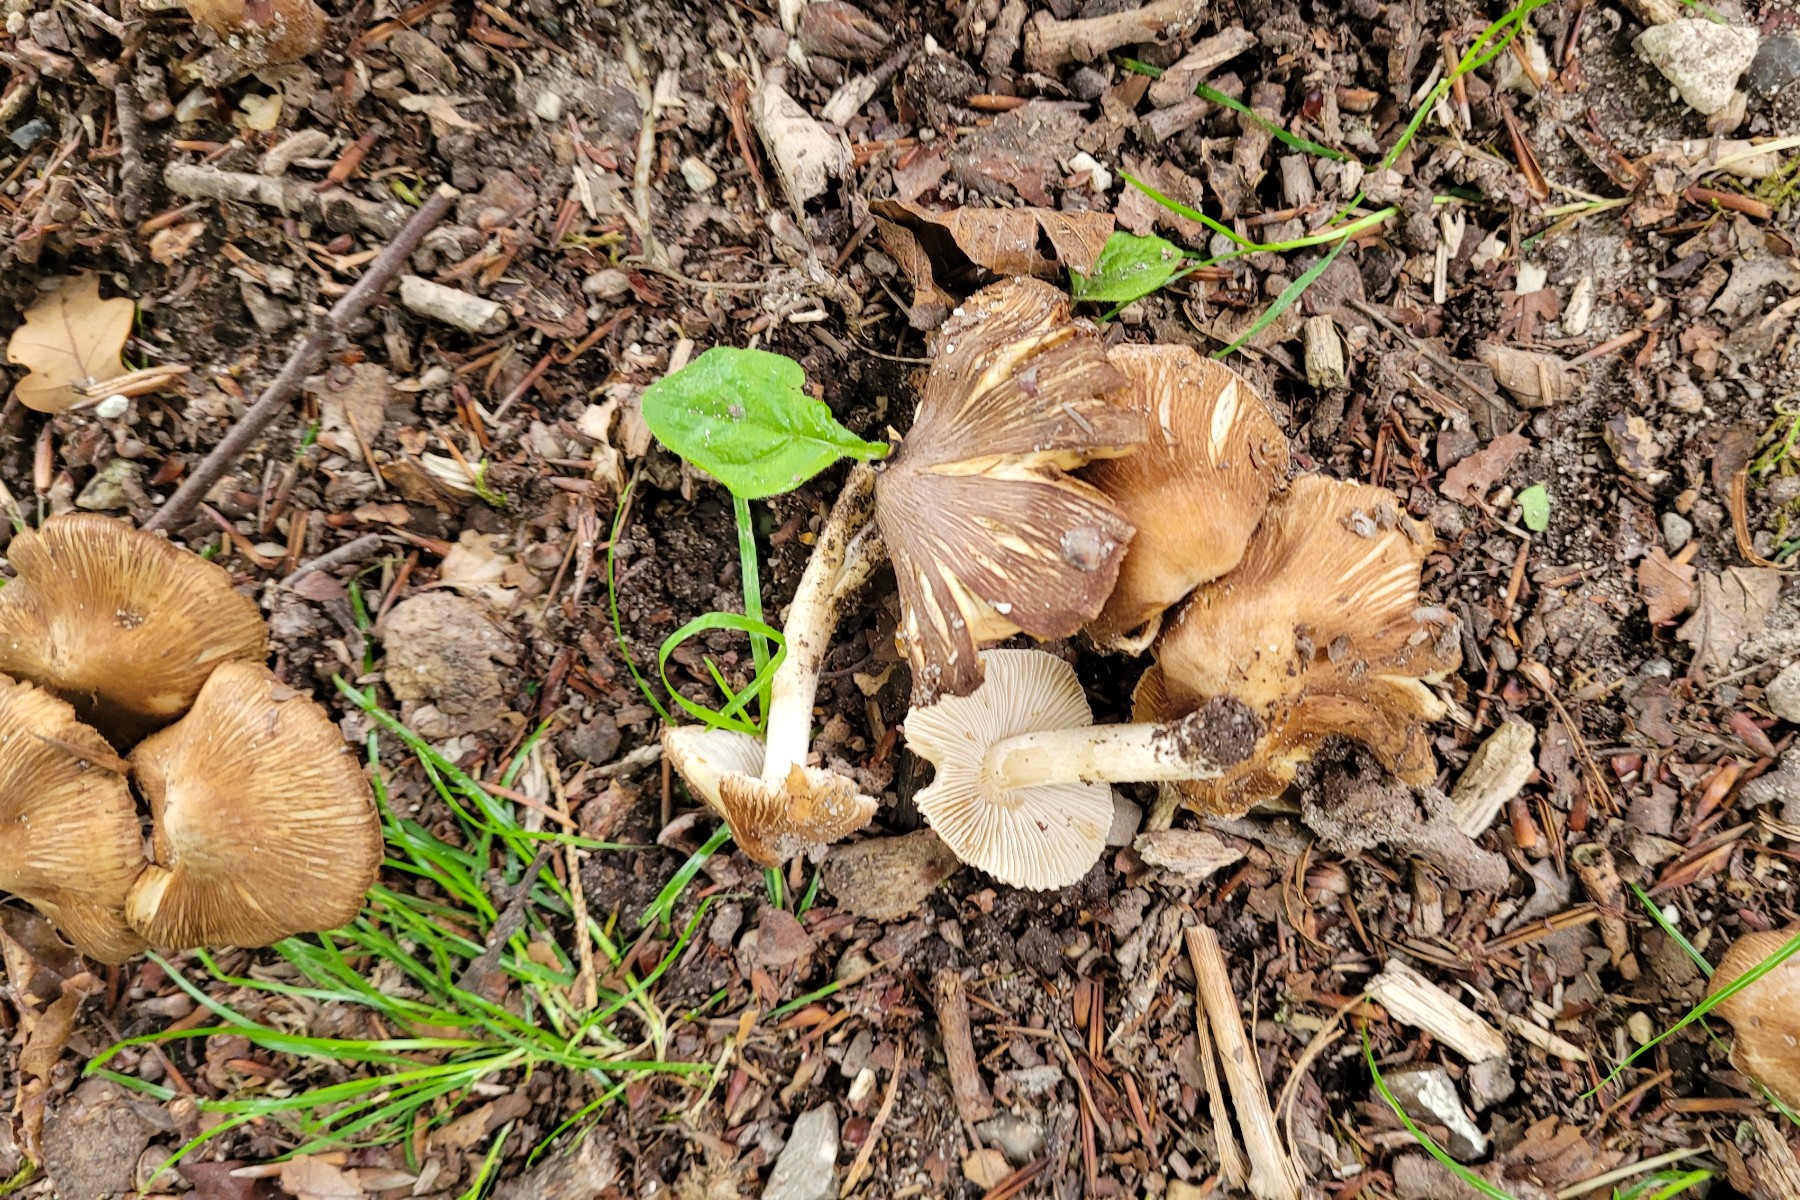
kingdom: Fungi
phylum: Basidiomycota
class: Agaricomycetes
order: Agaricales
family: Inocybaceae
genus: Pseudosperma
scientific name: Pseudosperma
